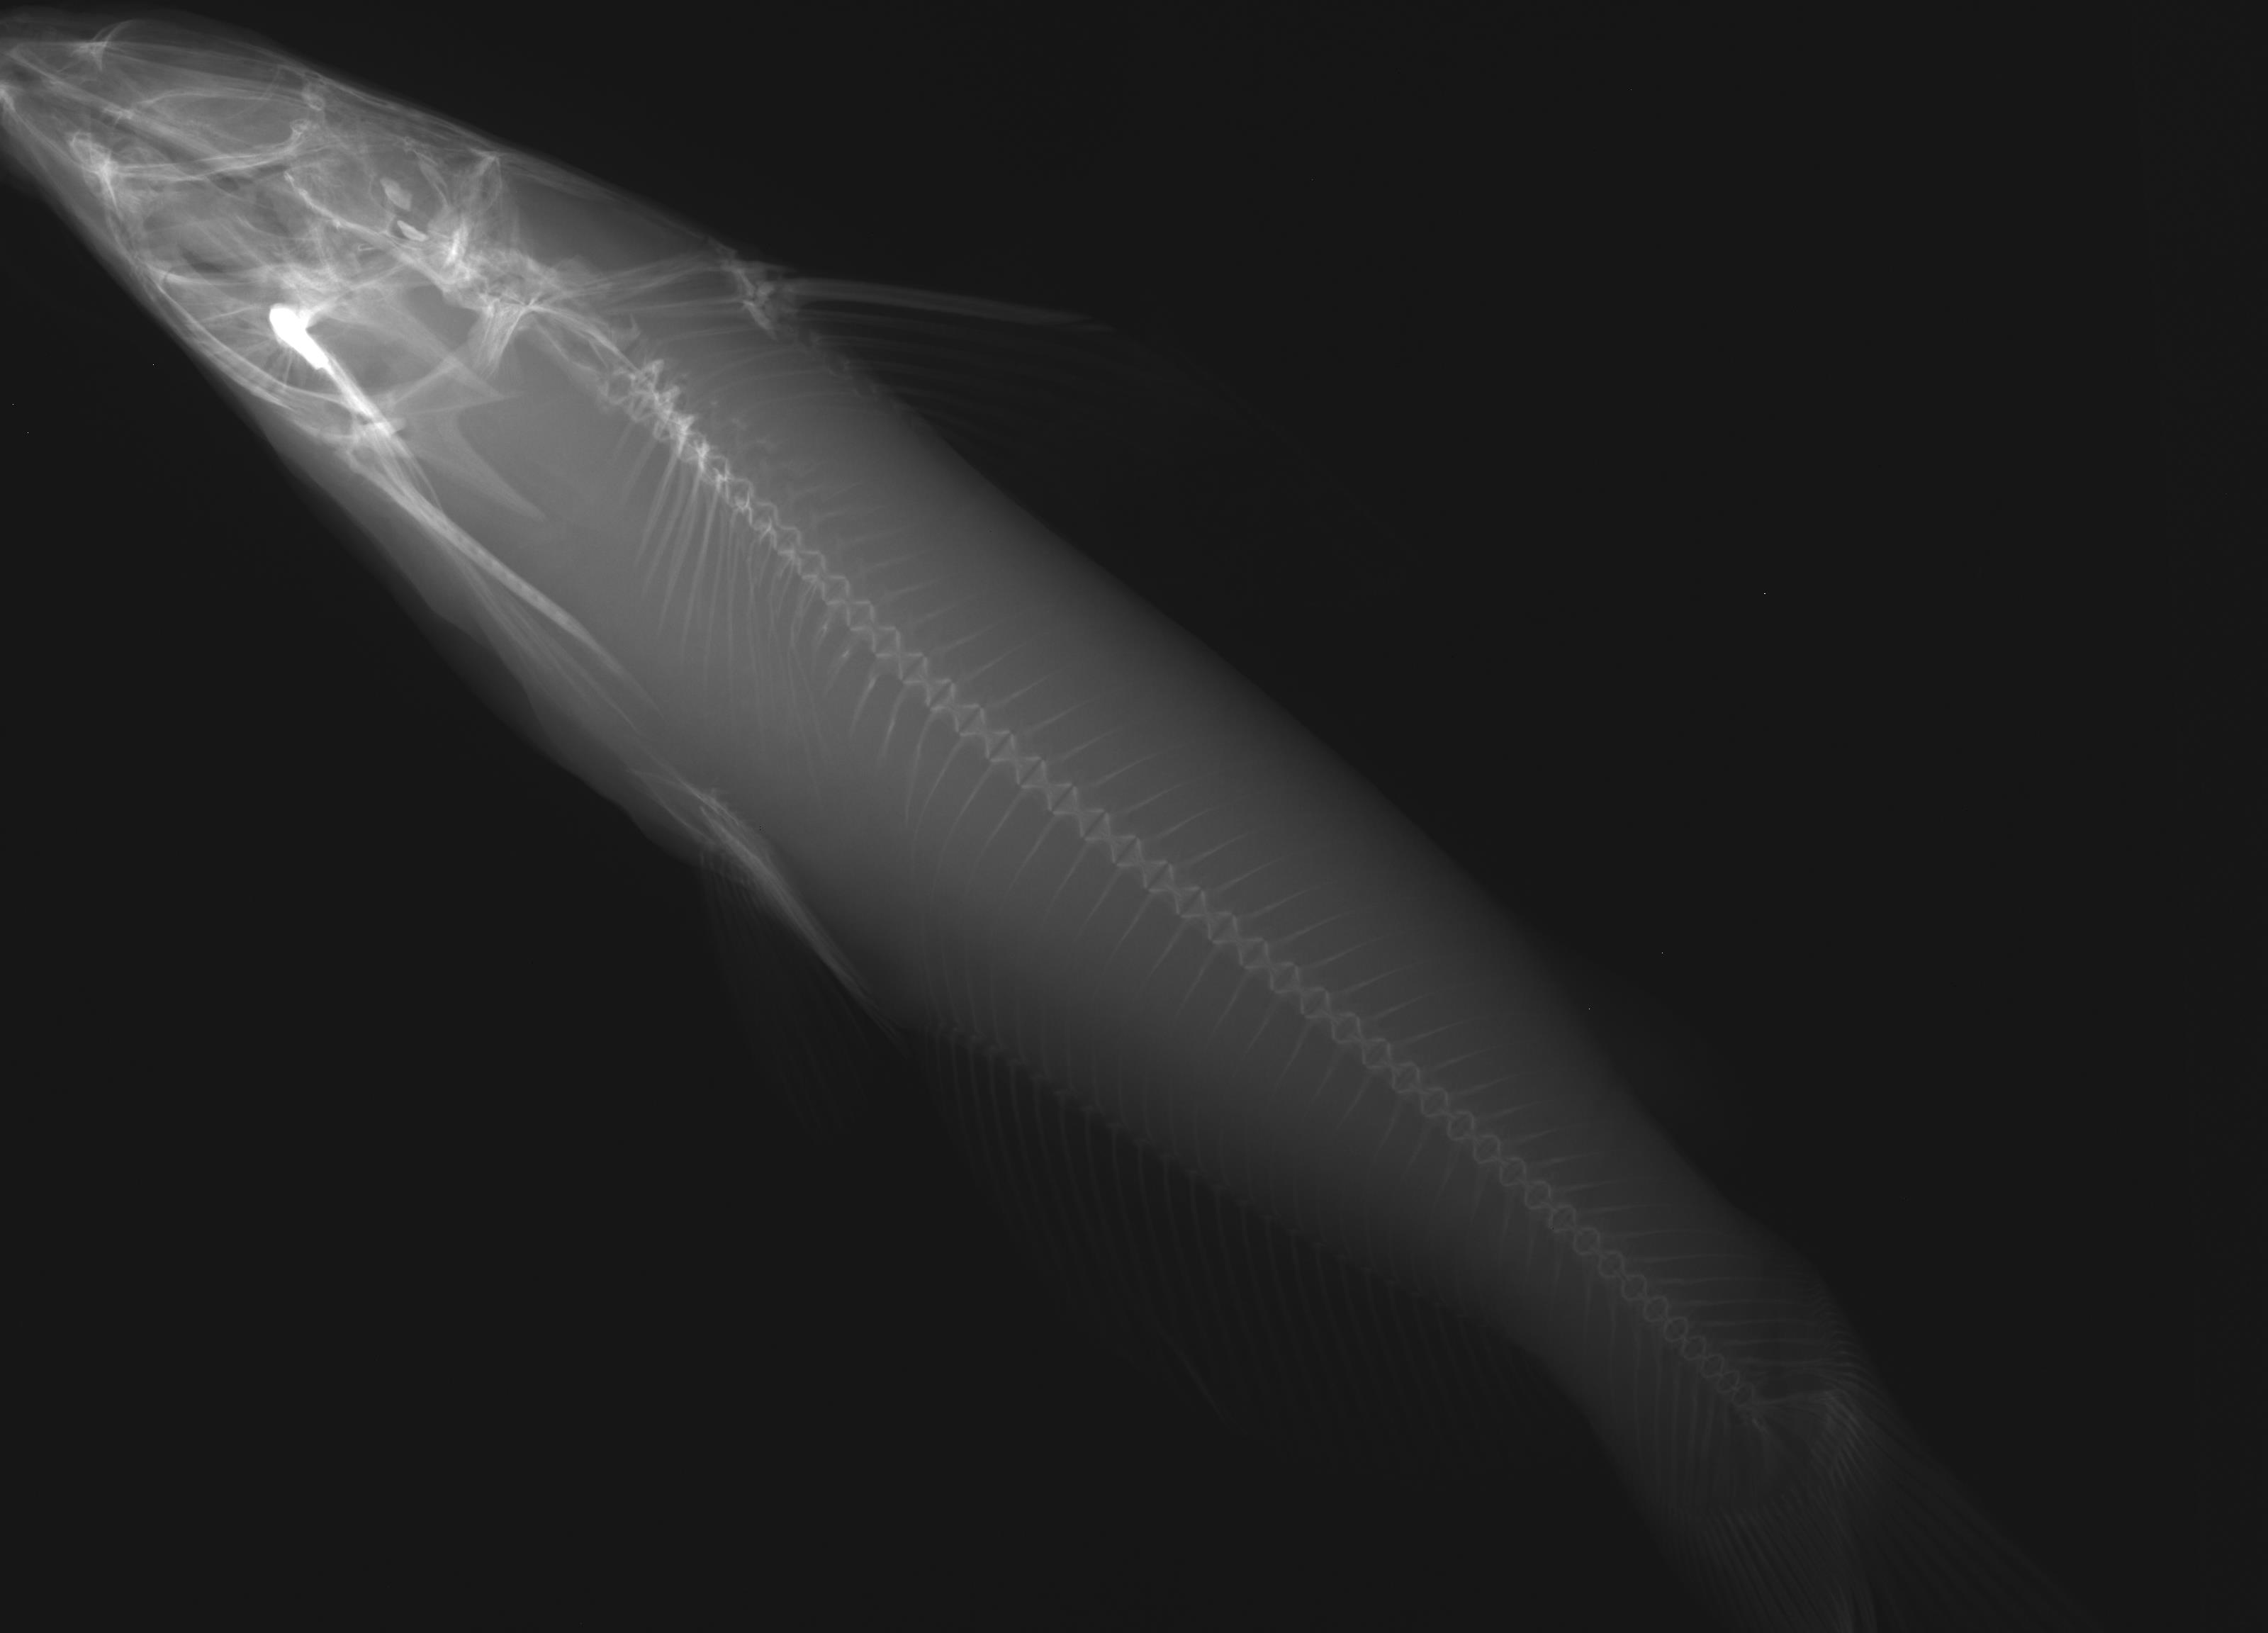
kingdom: Animalia
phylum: Chordata
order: Siluriformes
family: Ictaluridae
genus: Ictalurus
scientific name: Ictalurus punctatus
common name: Channel catfish
